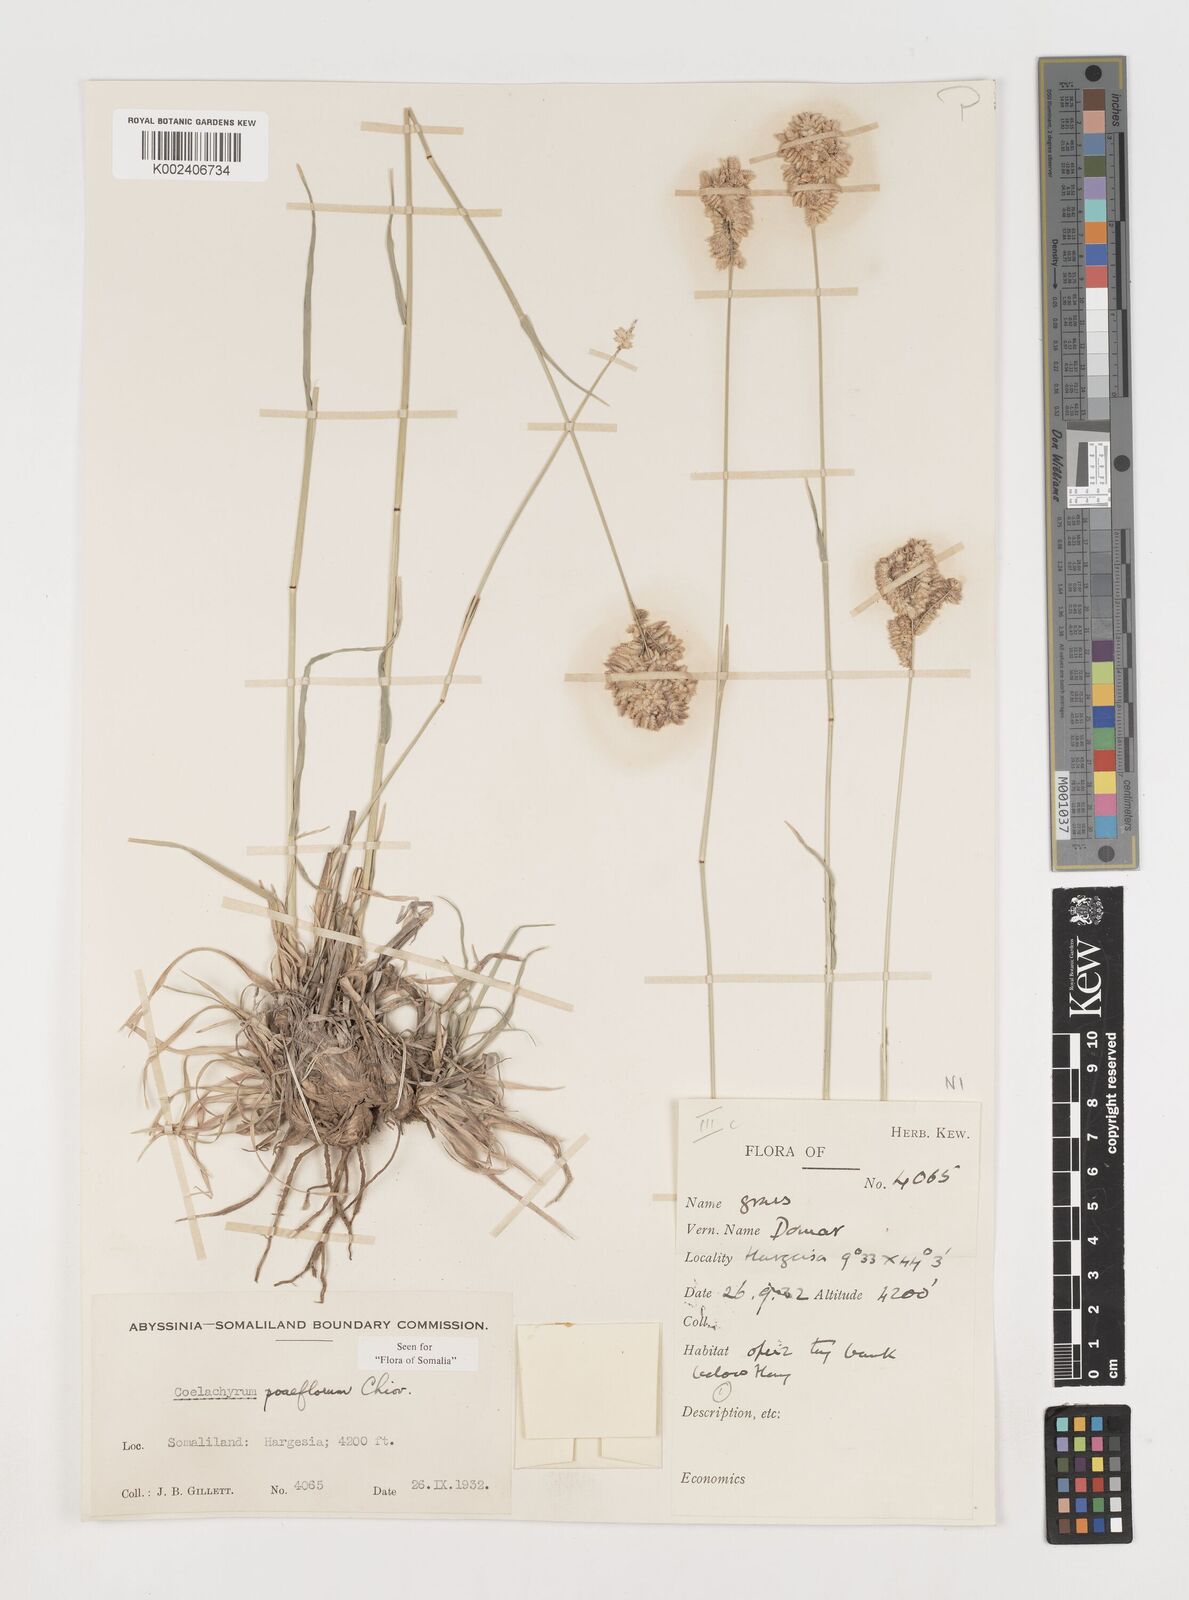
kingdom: Plantae
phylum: Tracheophyta
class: Liliopsida
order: Poales
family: Poaceae
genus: Coelachyrum
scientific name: Coelachyrum poiflorum
